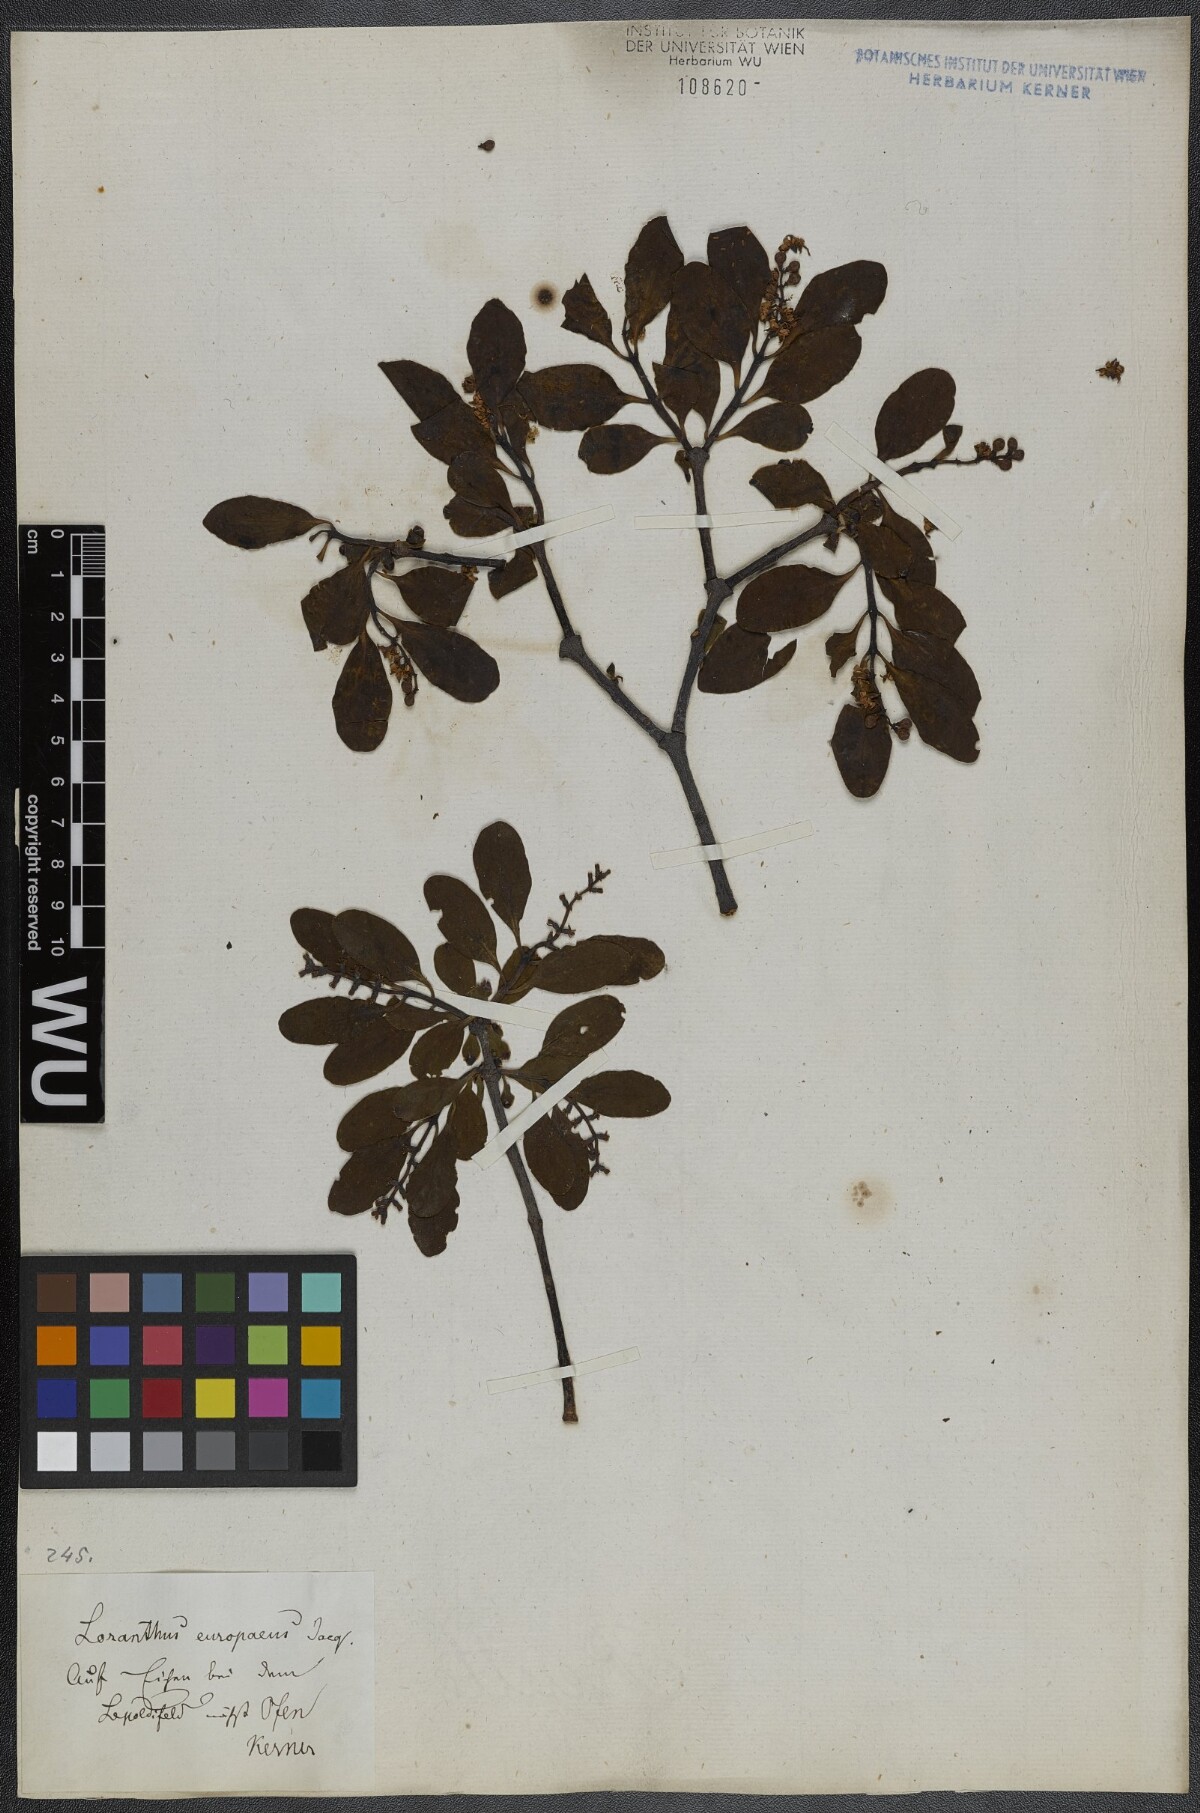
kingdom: Plantae
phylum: Tracheophyta
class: Magnoliopsida
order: Santalales
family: Loranthaceae
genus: Loranthus
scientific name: Loranthus europaeus
